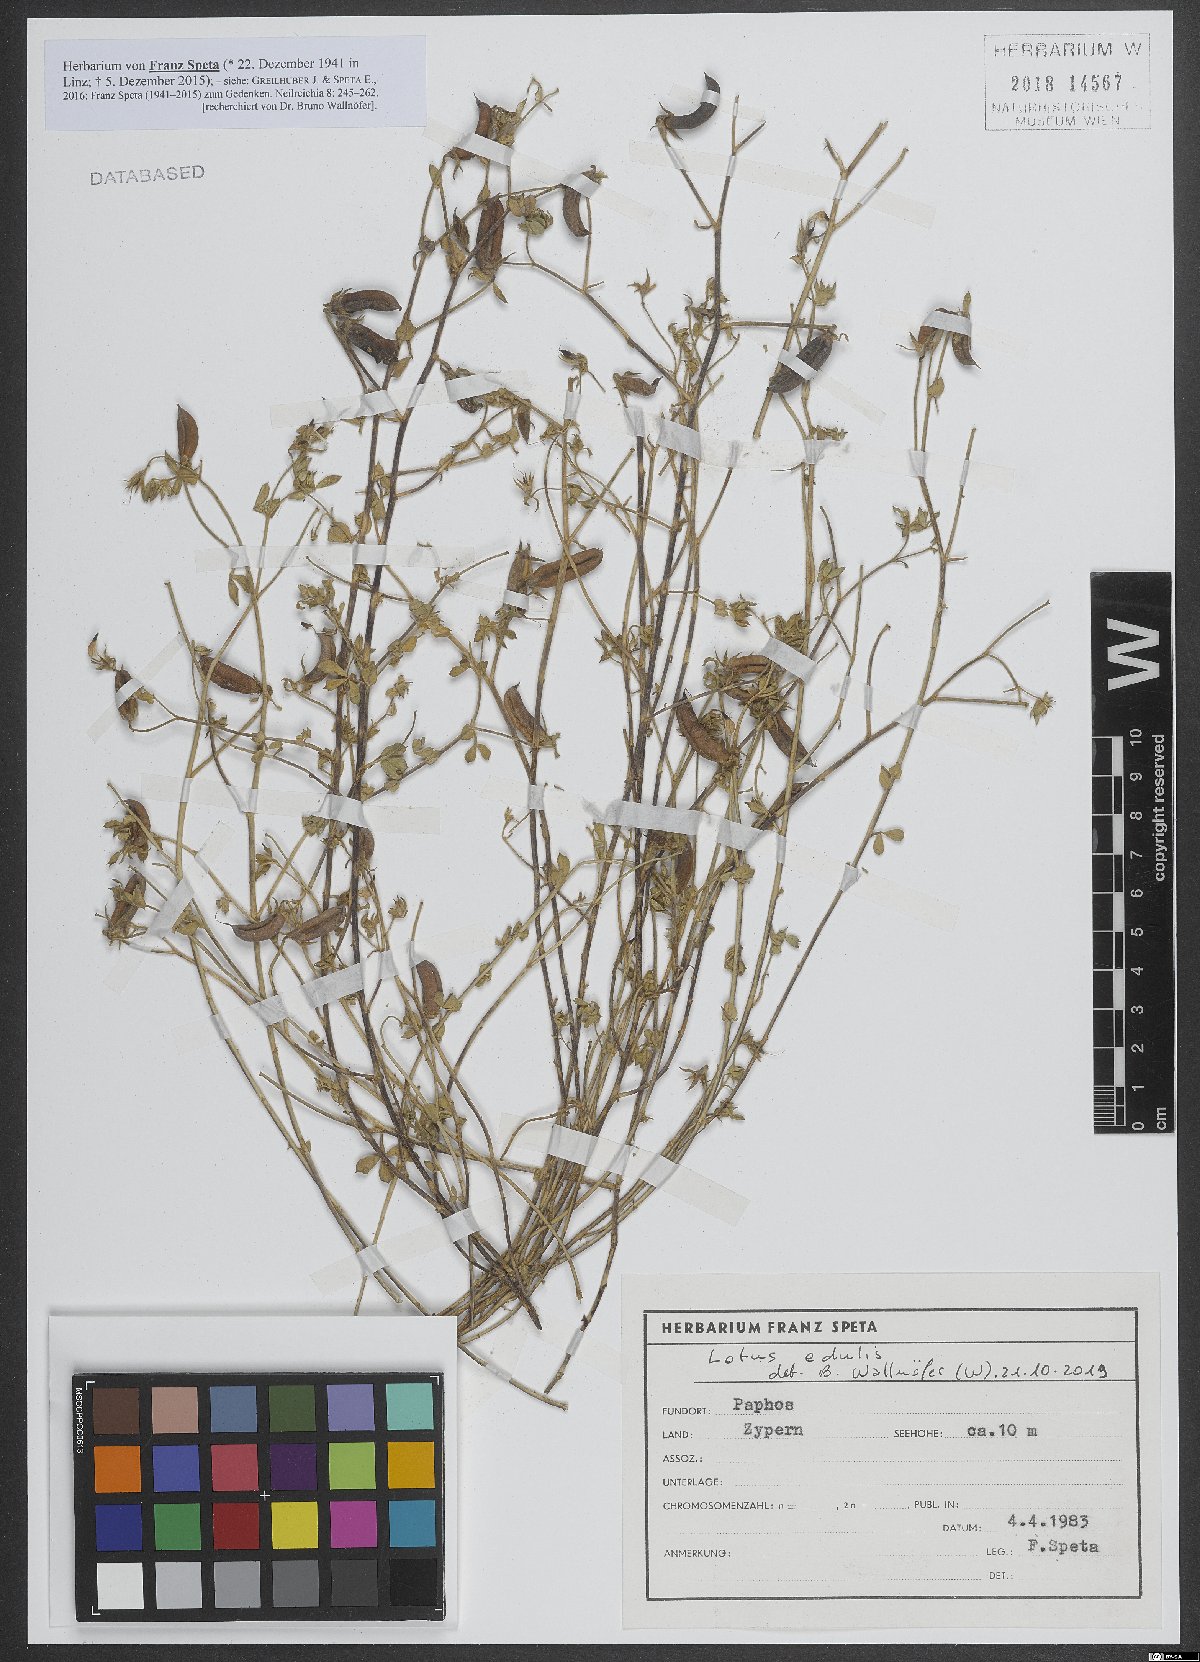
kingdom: Plantae
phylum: Tracheophyta
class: Magnoliopsida
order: Fabales
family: Fabaceae
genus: Lotus
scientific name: Lotus edulis
